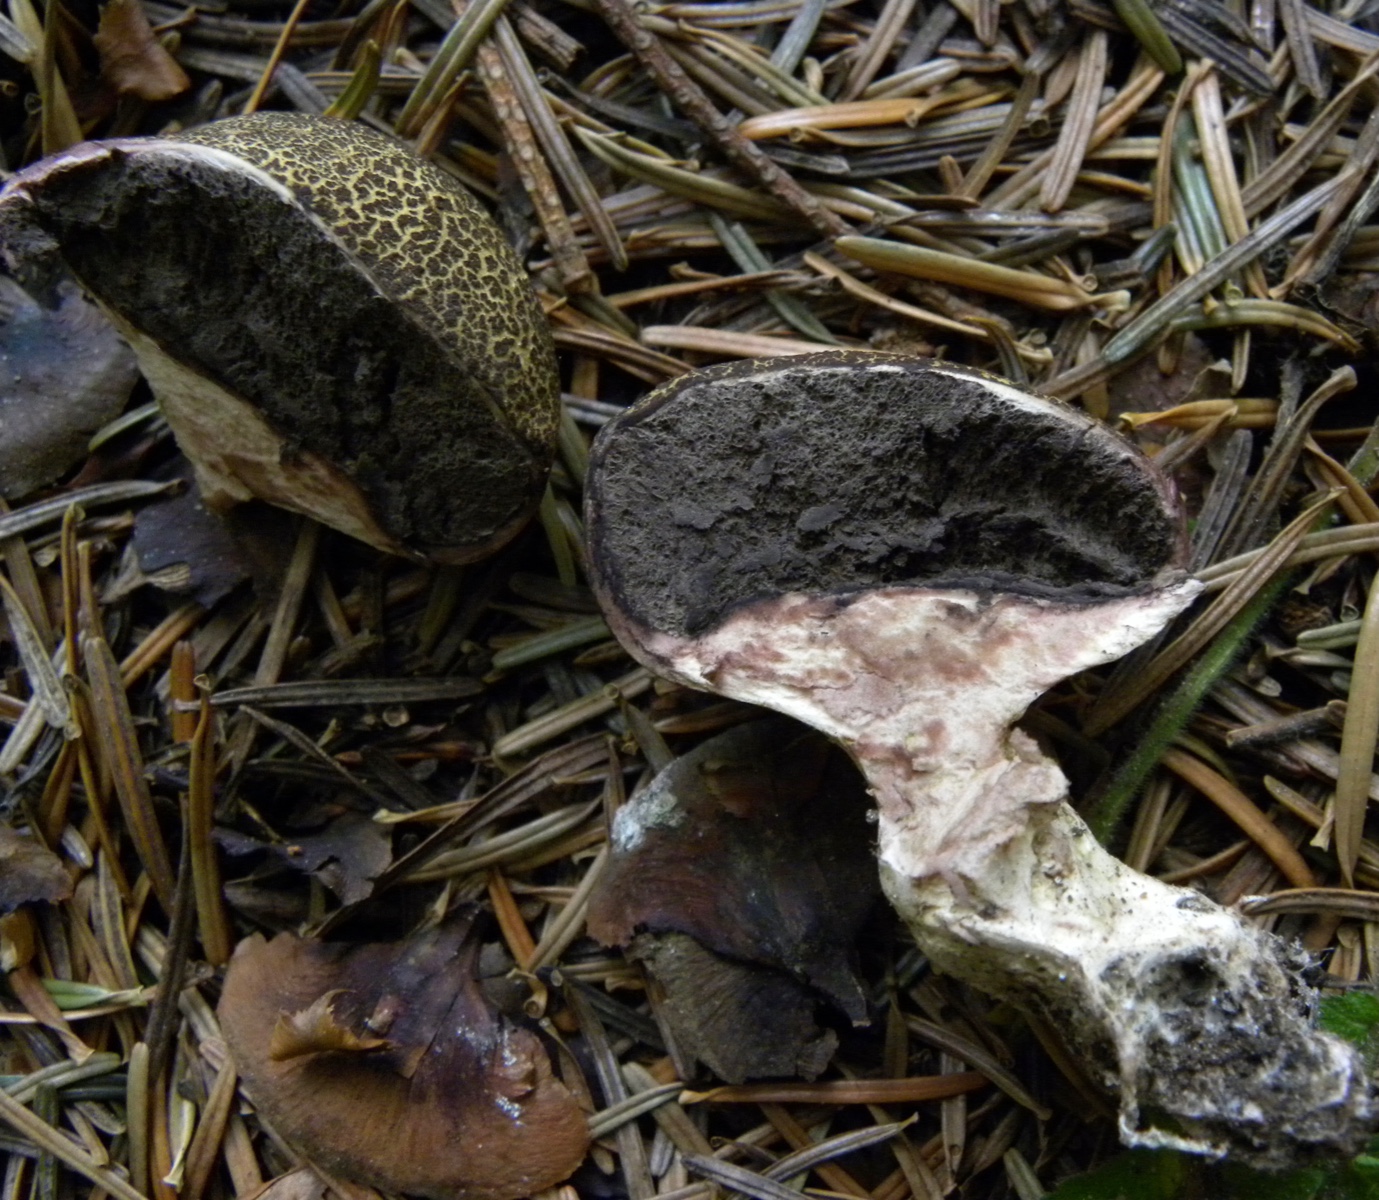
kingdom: Fungi
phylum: Basidiomycota
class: Agaricomycetes
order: Boletales
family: Sclerodermataceae
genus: Scleroderma
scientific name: Scleroderma verrucosum
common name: stilket bruskbold
